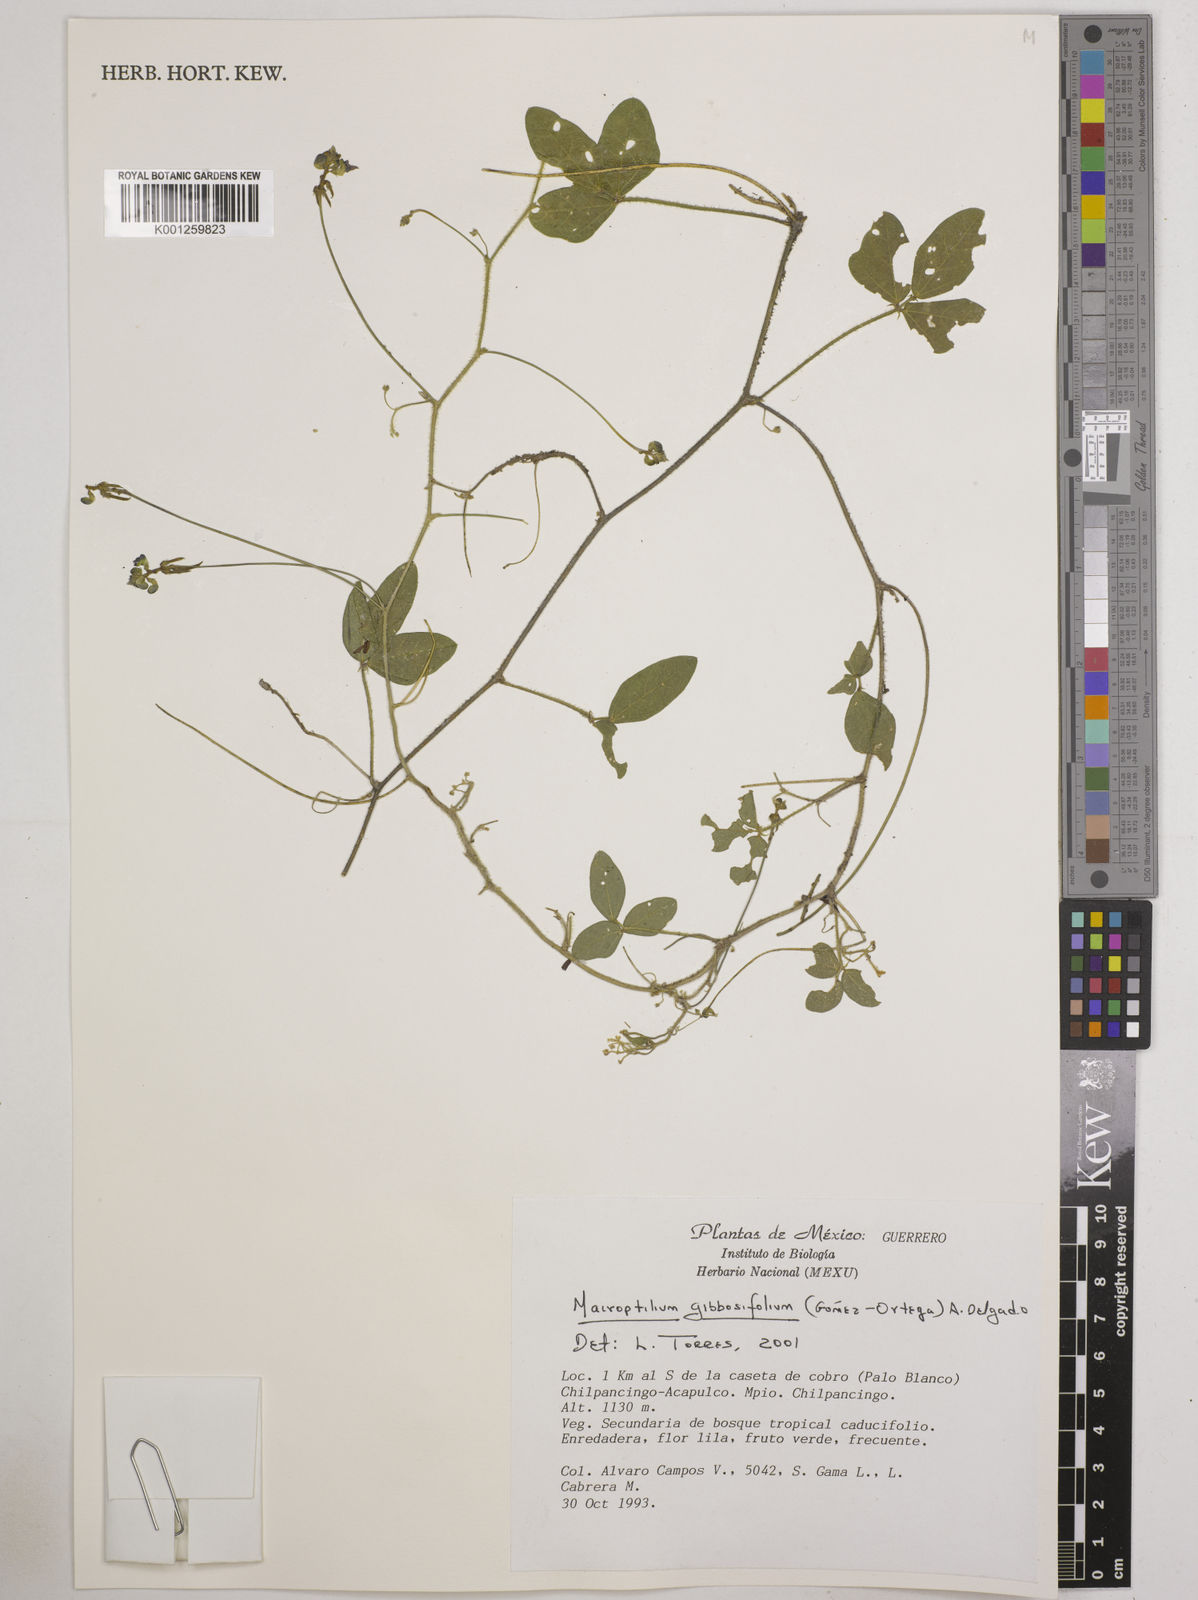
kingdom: Plantae
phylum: Tracheophyta
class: Magnoliopsida
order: Fabales
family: Fabaceae
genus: Macroptilium
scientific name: Macroptilium gibbosifolium
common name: Variableleaf bushbean
